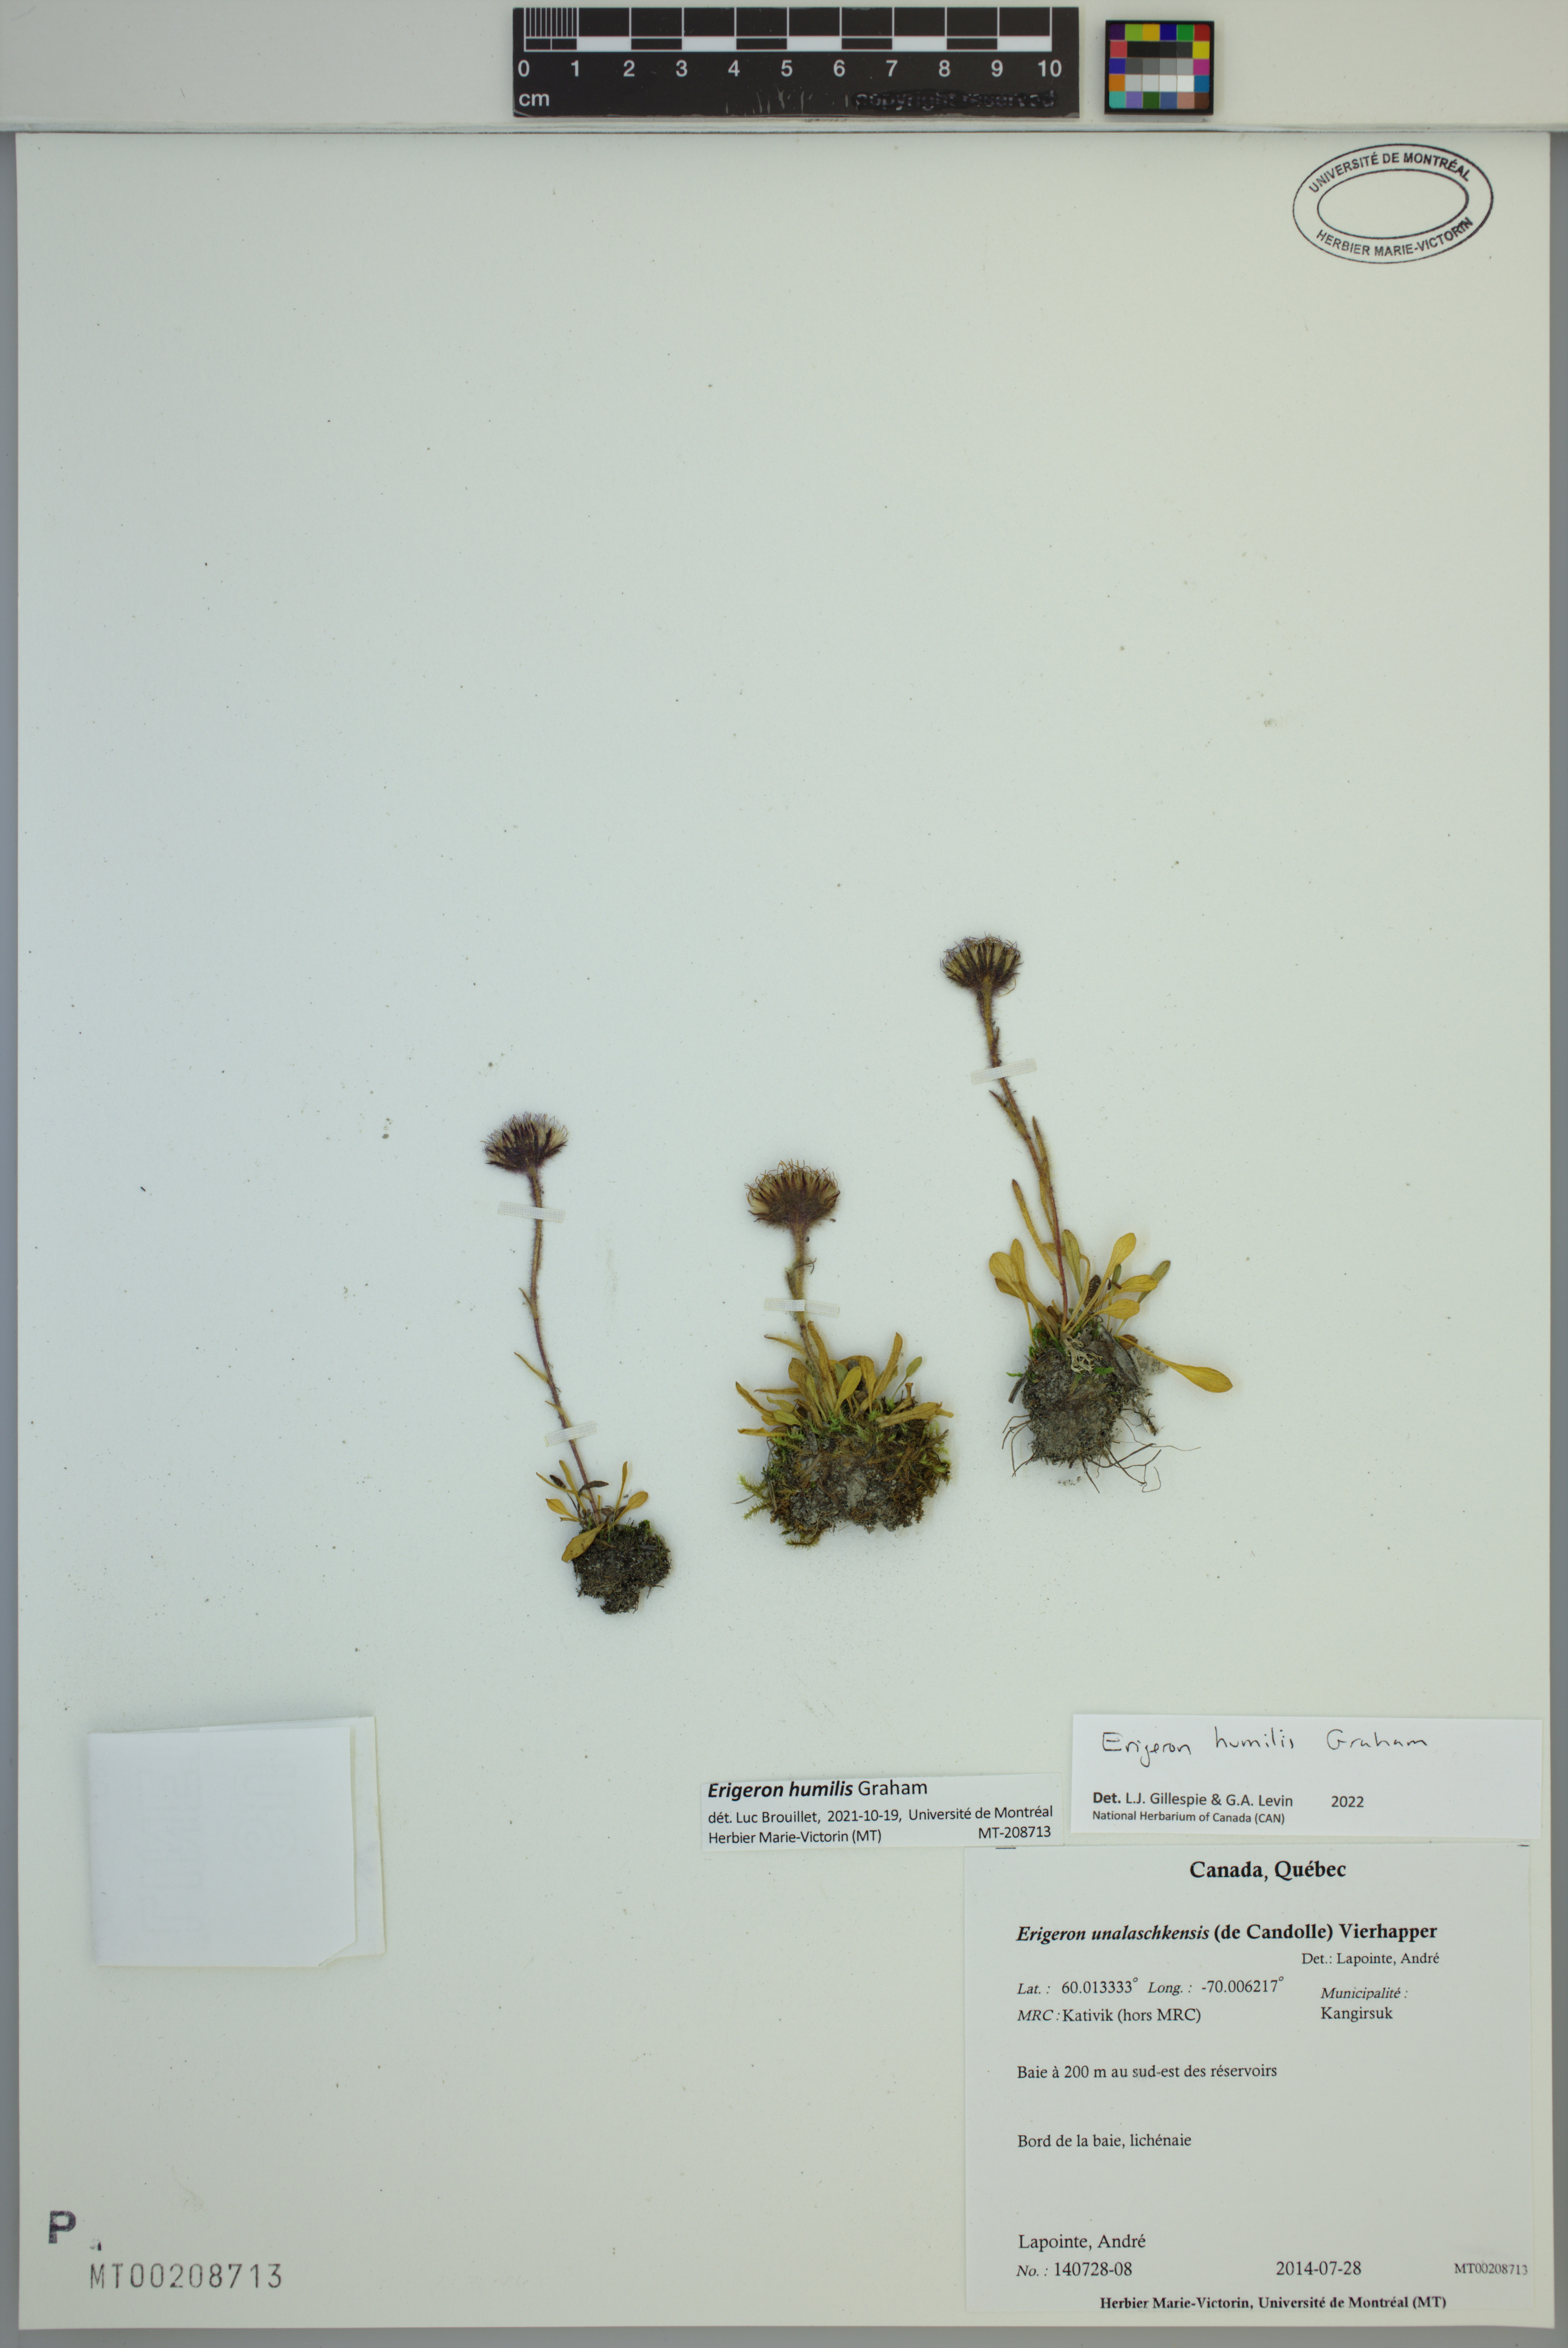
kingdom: Plantae
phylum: Tracheophyta
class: Magnoliopsida
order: Asterales
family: Asteraceae
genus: Erigeron
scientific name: Erigeron humilis
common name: Arctic-alpine fleabane
